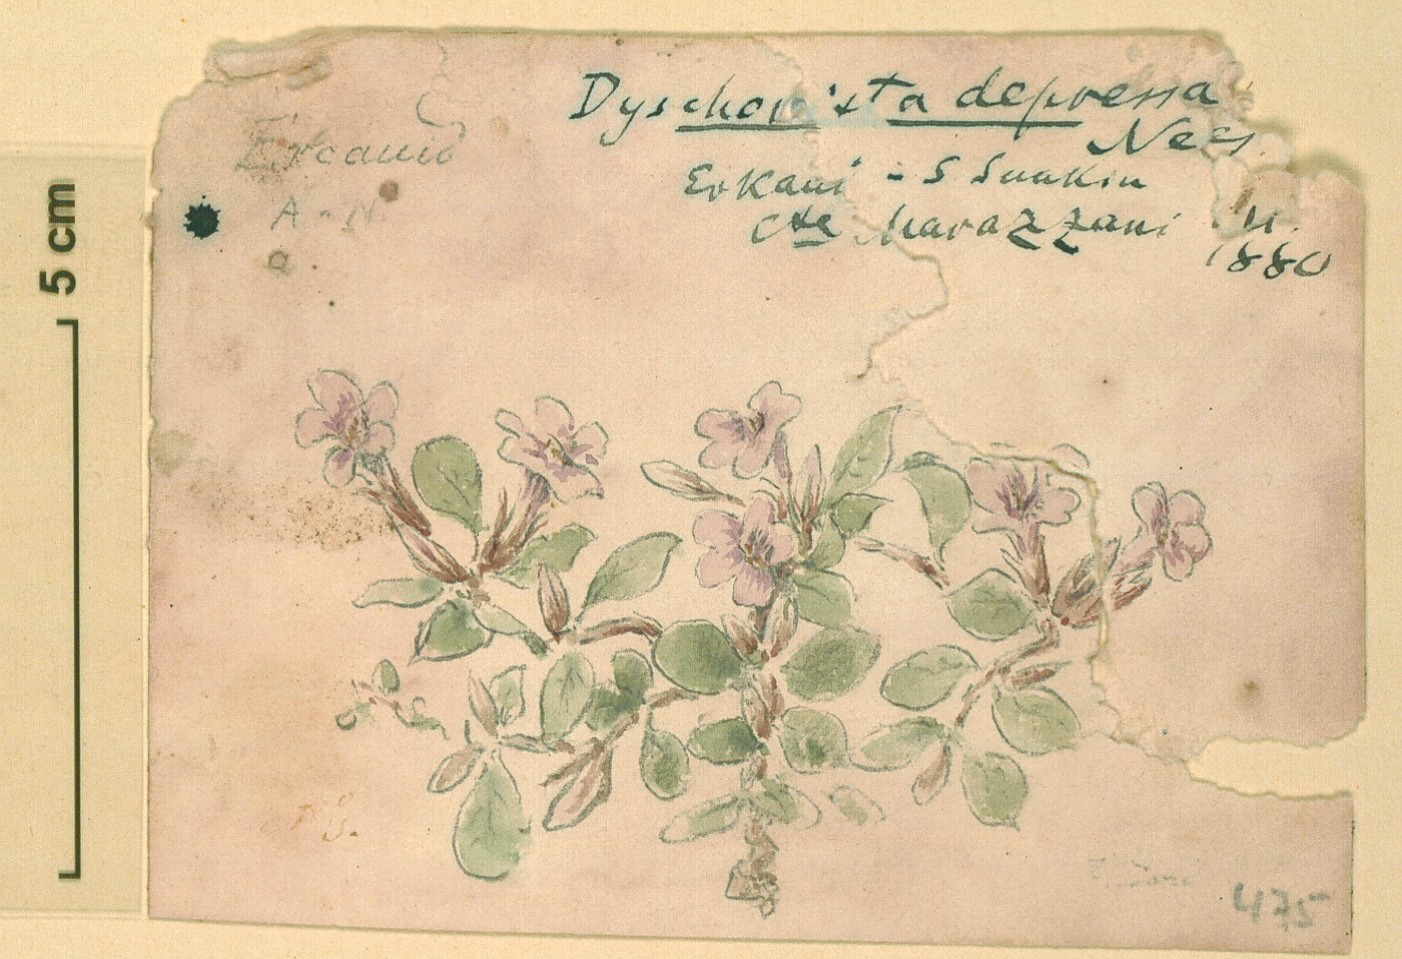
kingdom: Plantae
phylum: Tracheophyta
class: Magnoliopsida
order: Lamiales
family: Acanthaceae
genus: Hygrophila
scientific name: Hygrophila erecta
